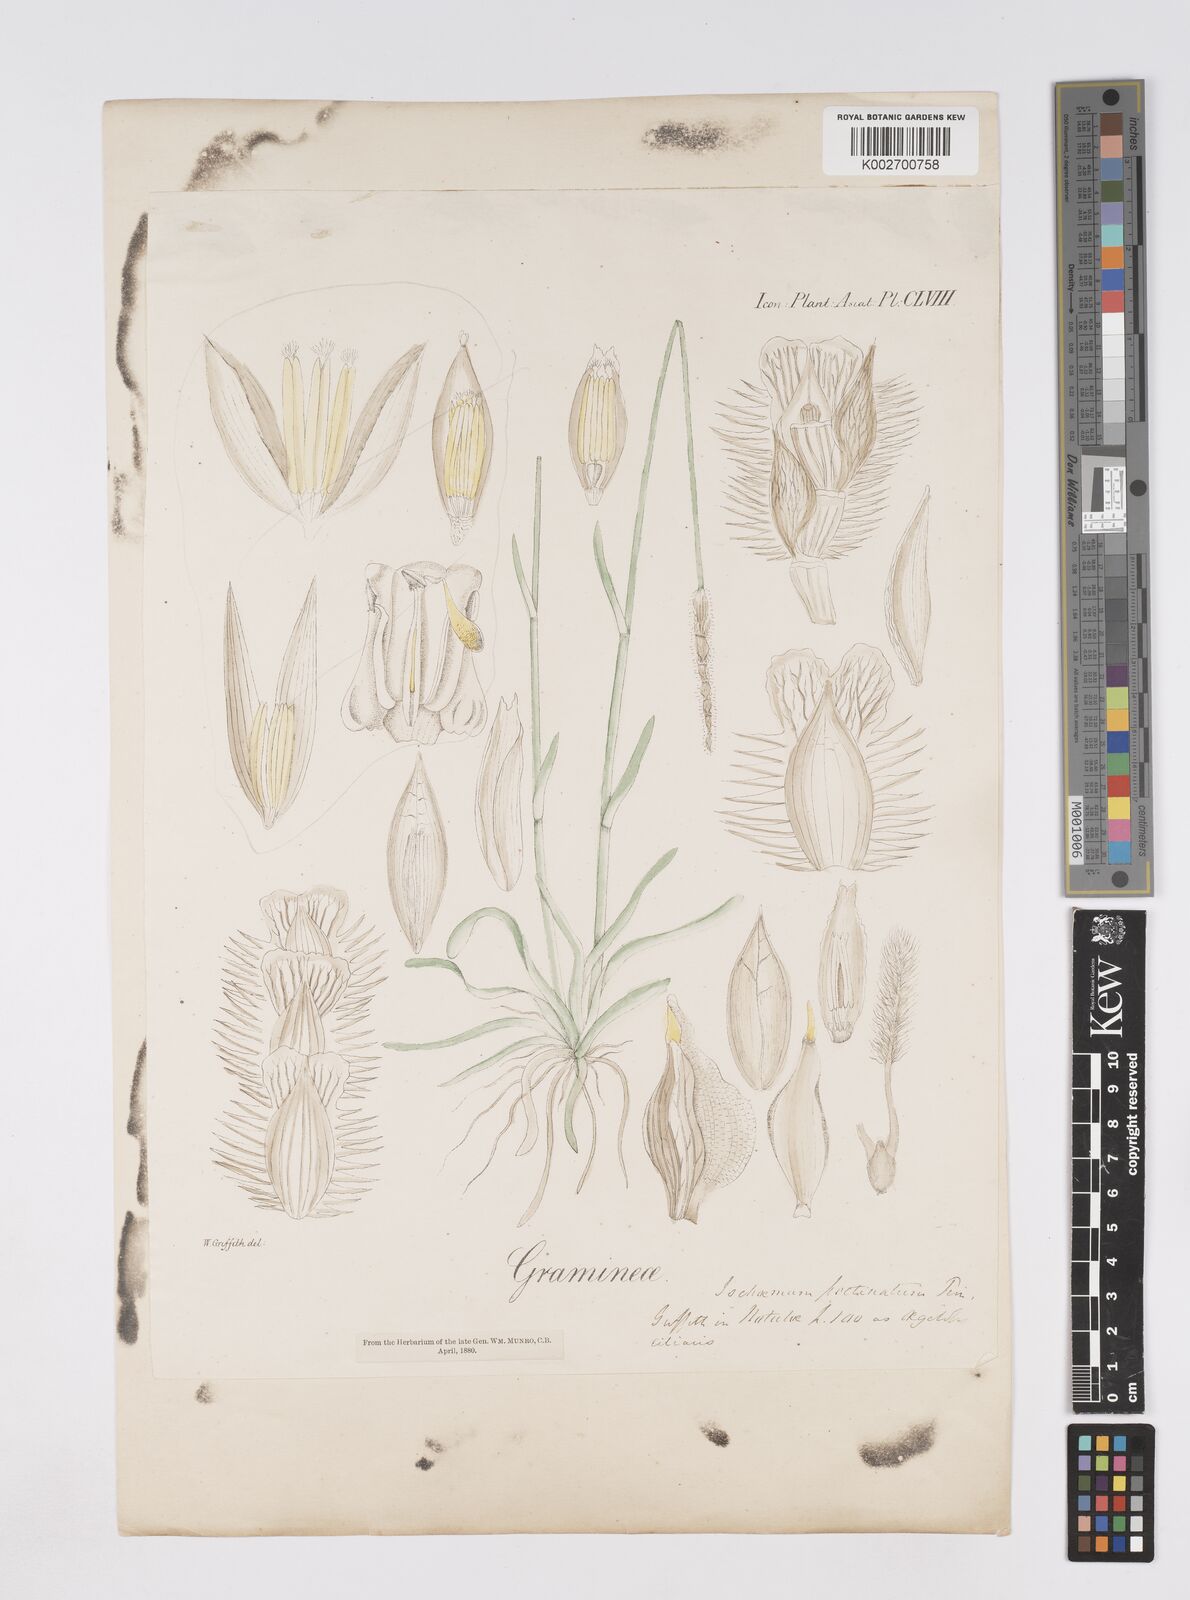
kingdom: Plantae
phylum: Tracheophyta
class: Liliopsida
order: Poales
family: Poaceae
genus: Eremochloa
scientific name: Eremochloa muricata
